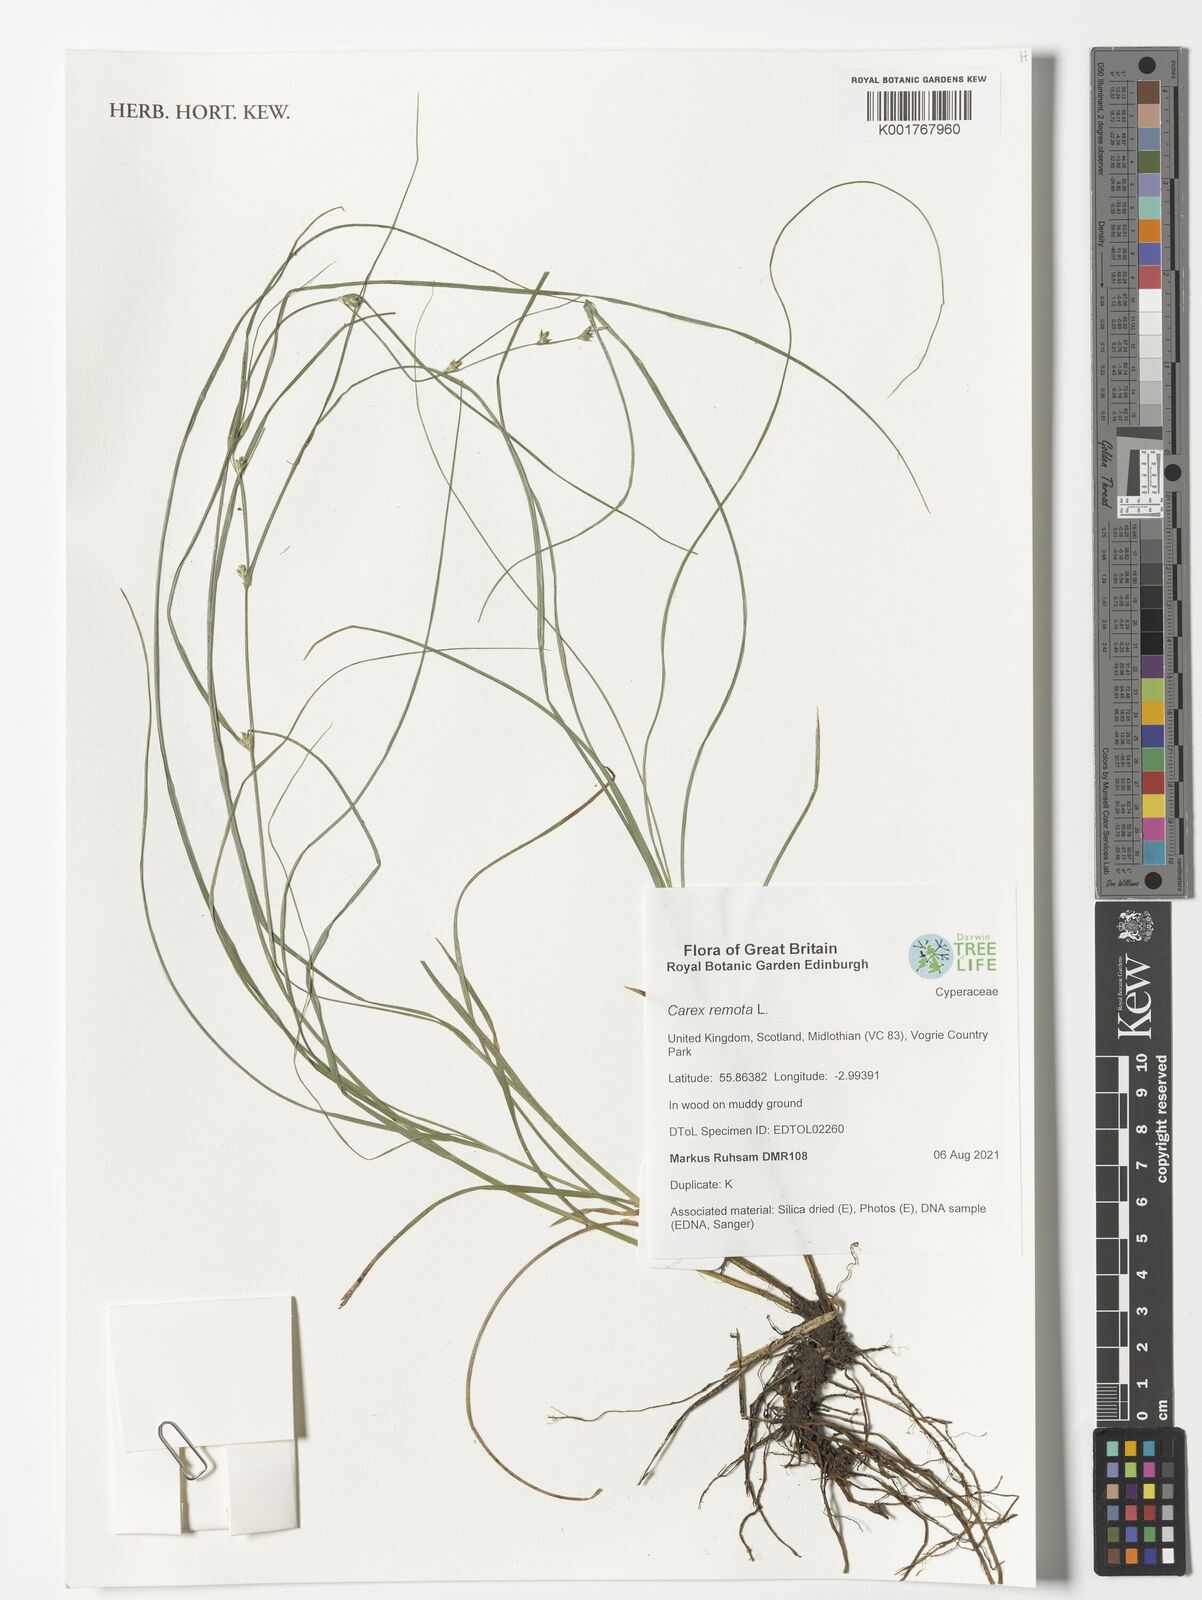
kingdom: Plantae
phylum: Tracheophyta
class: Liliopsida
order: Poales
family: Cyperaceae
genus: Carex
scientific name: Carex remota
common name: Remote sedge
